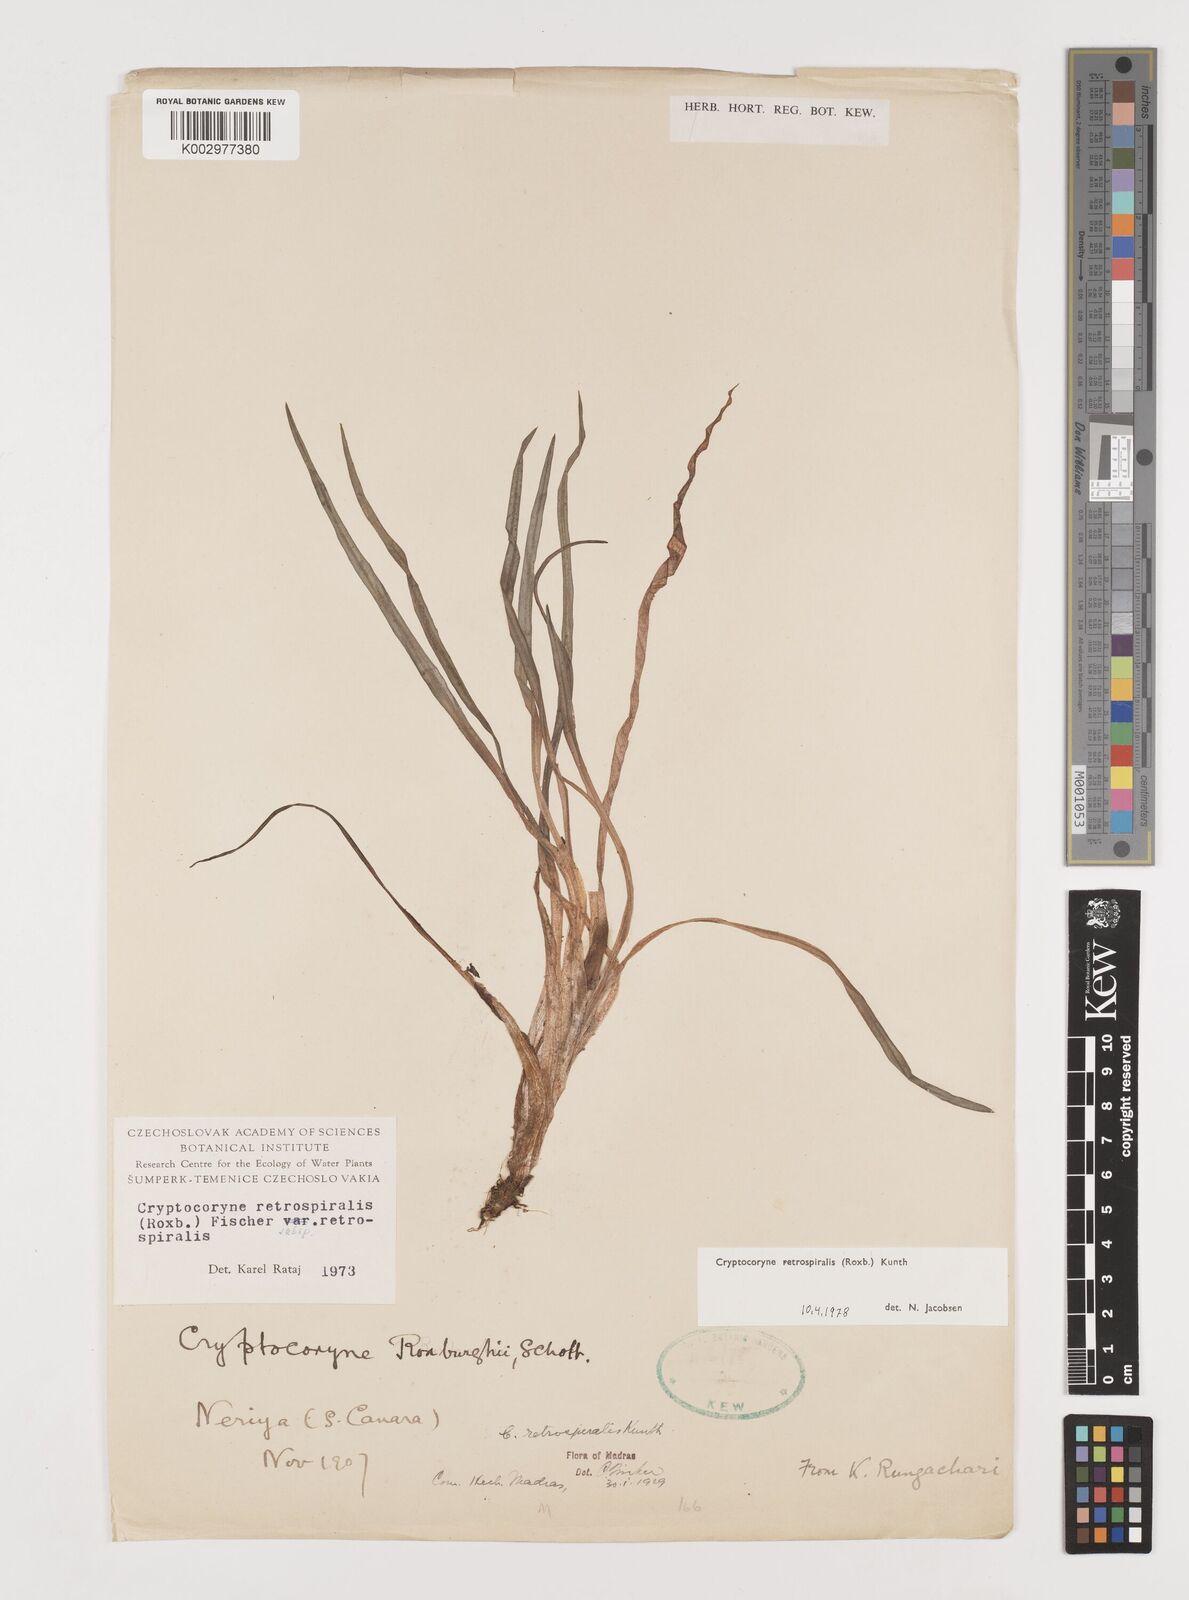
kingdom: Plantae
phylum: Tracheophyta
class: Liliopsida
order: Alismatales
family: Araceae
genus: Cryptocoryne
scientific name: Cryptocoryne retrospiralis
